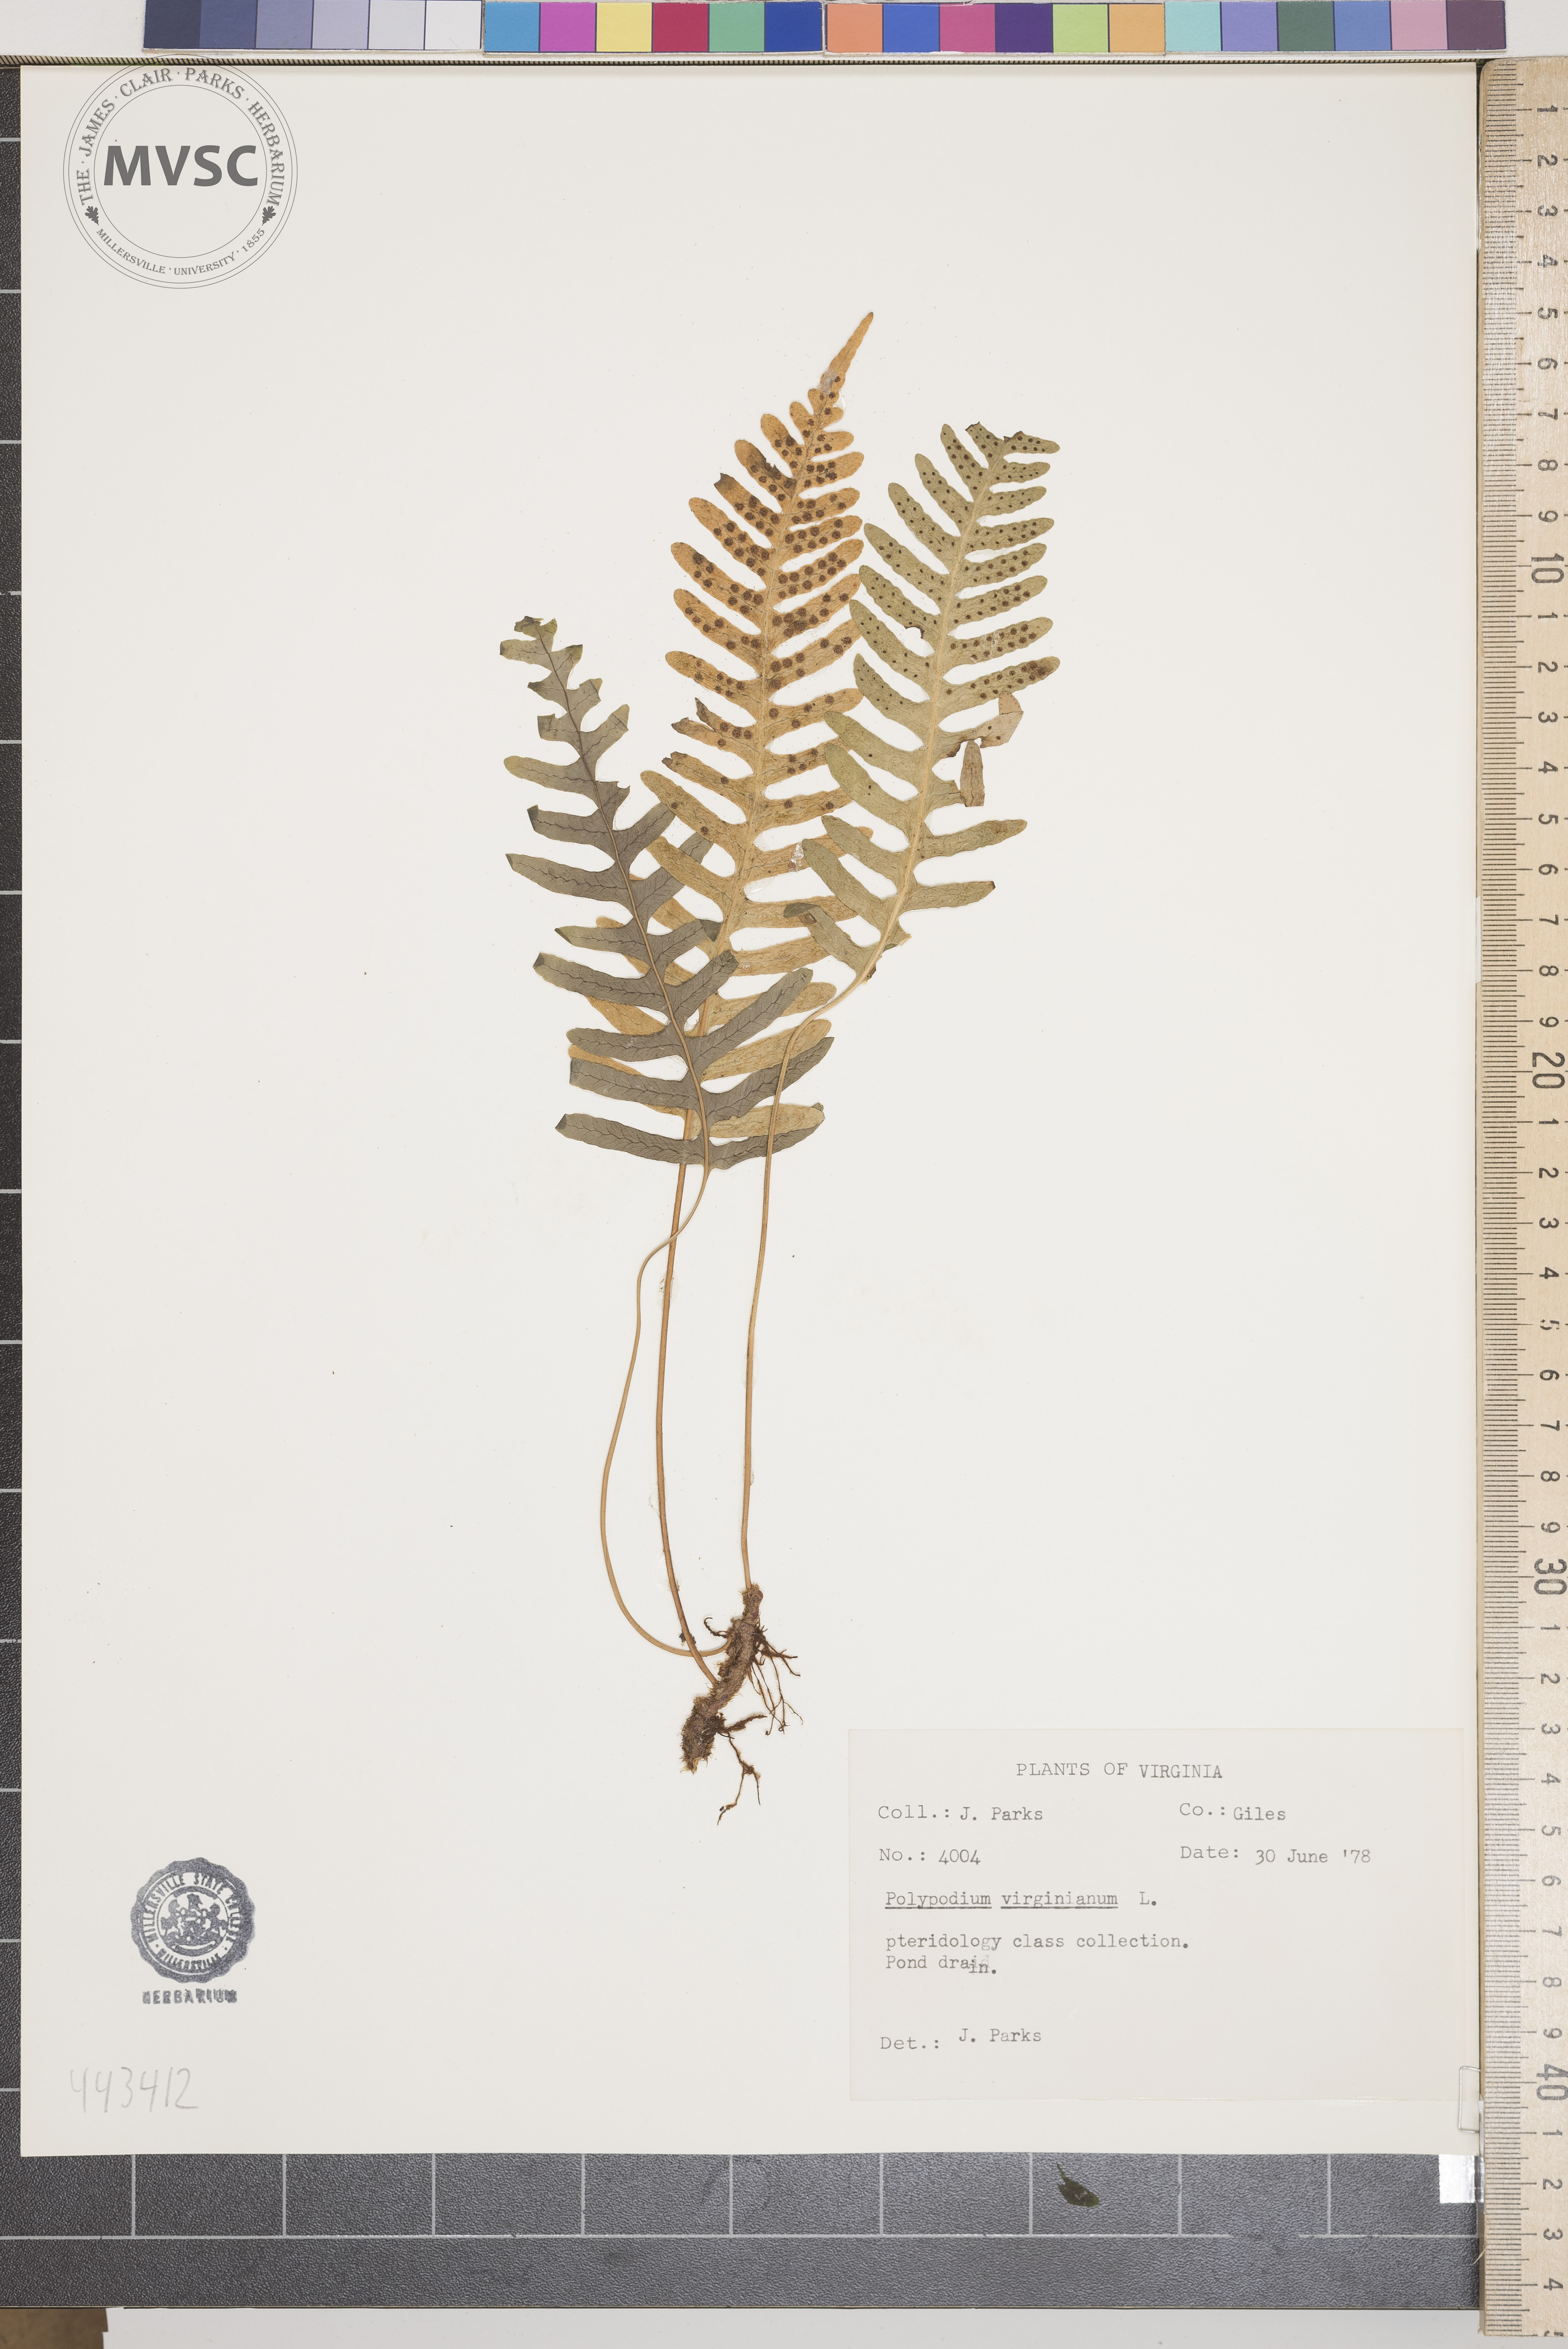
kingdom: Plantae
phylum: Tracheophyta
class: Polypodiopsida
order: Polypodiales
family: Polypodiaceae
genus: Polypodium
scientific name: Polypodium virginianum
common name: American wall fern
